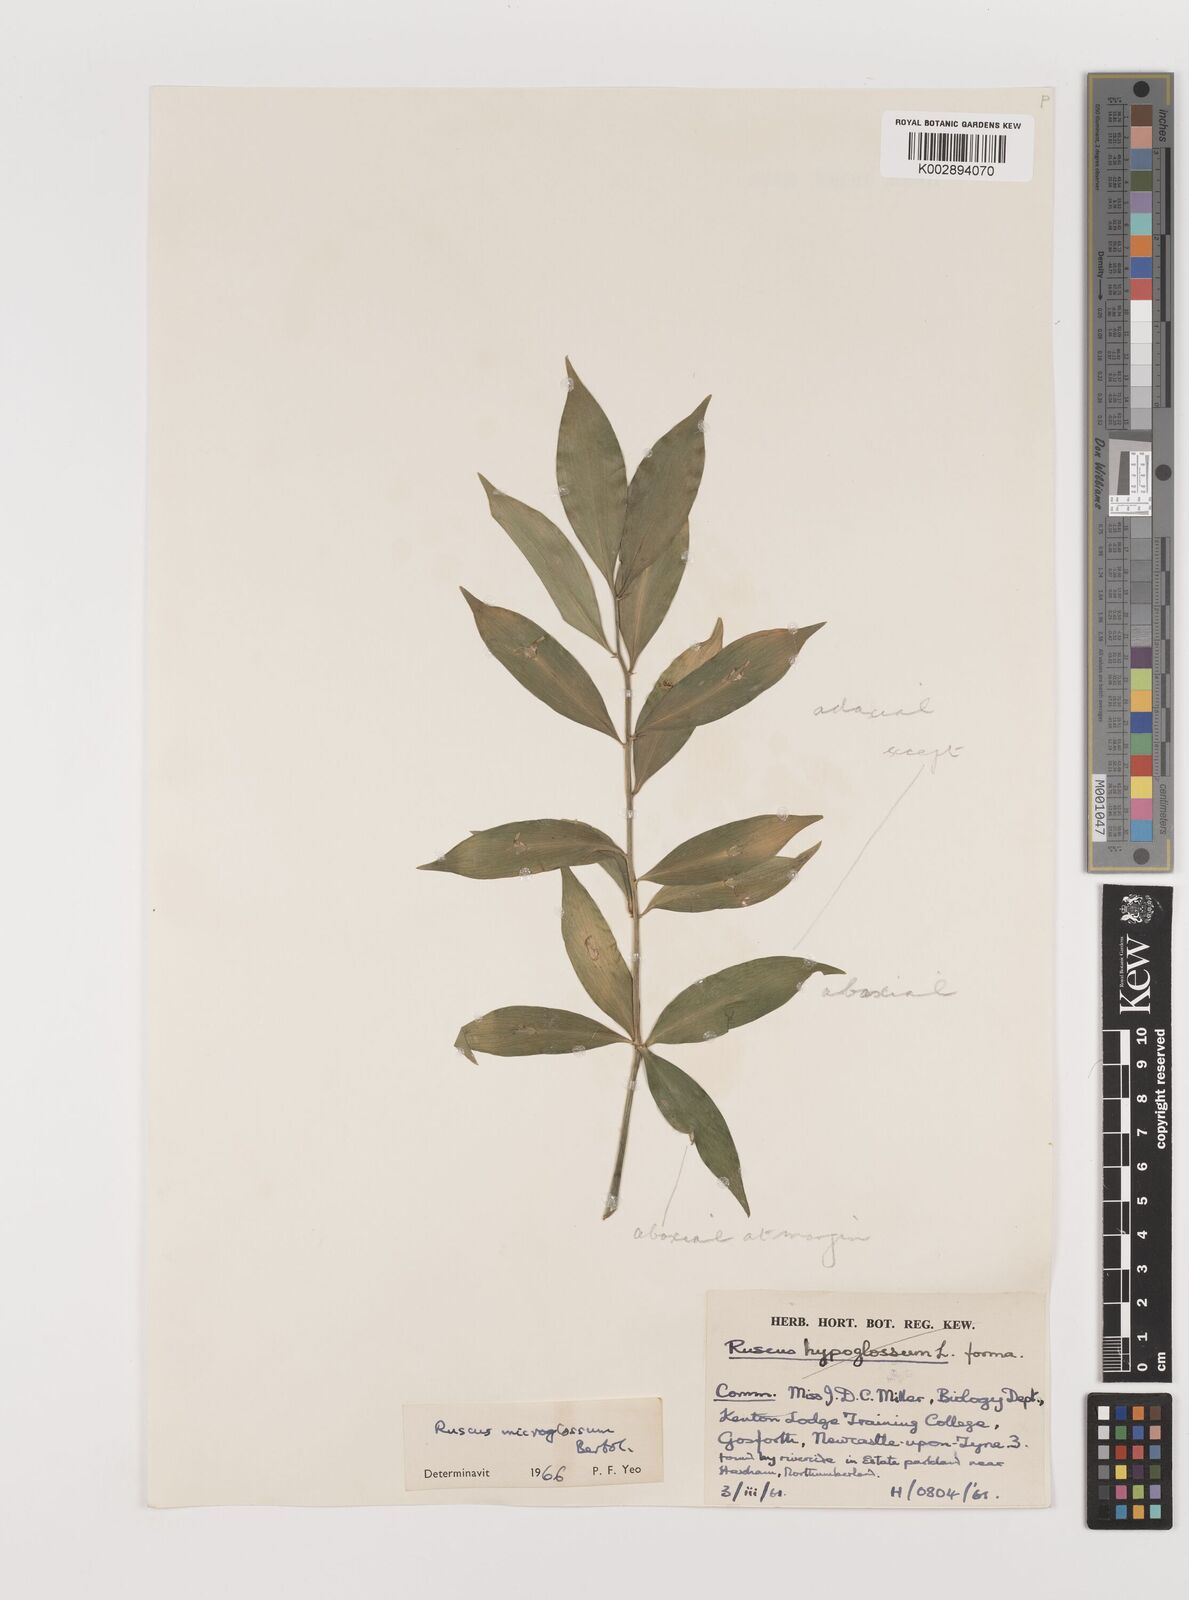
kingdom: Plantae
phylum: Tracheophyta
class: Liliopsida
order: Asparagales
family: Asparagaceae
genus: Ruscus
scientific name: Ruscus microglossus
